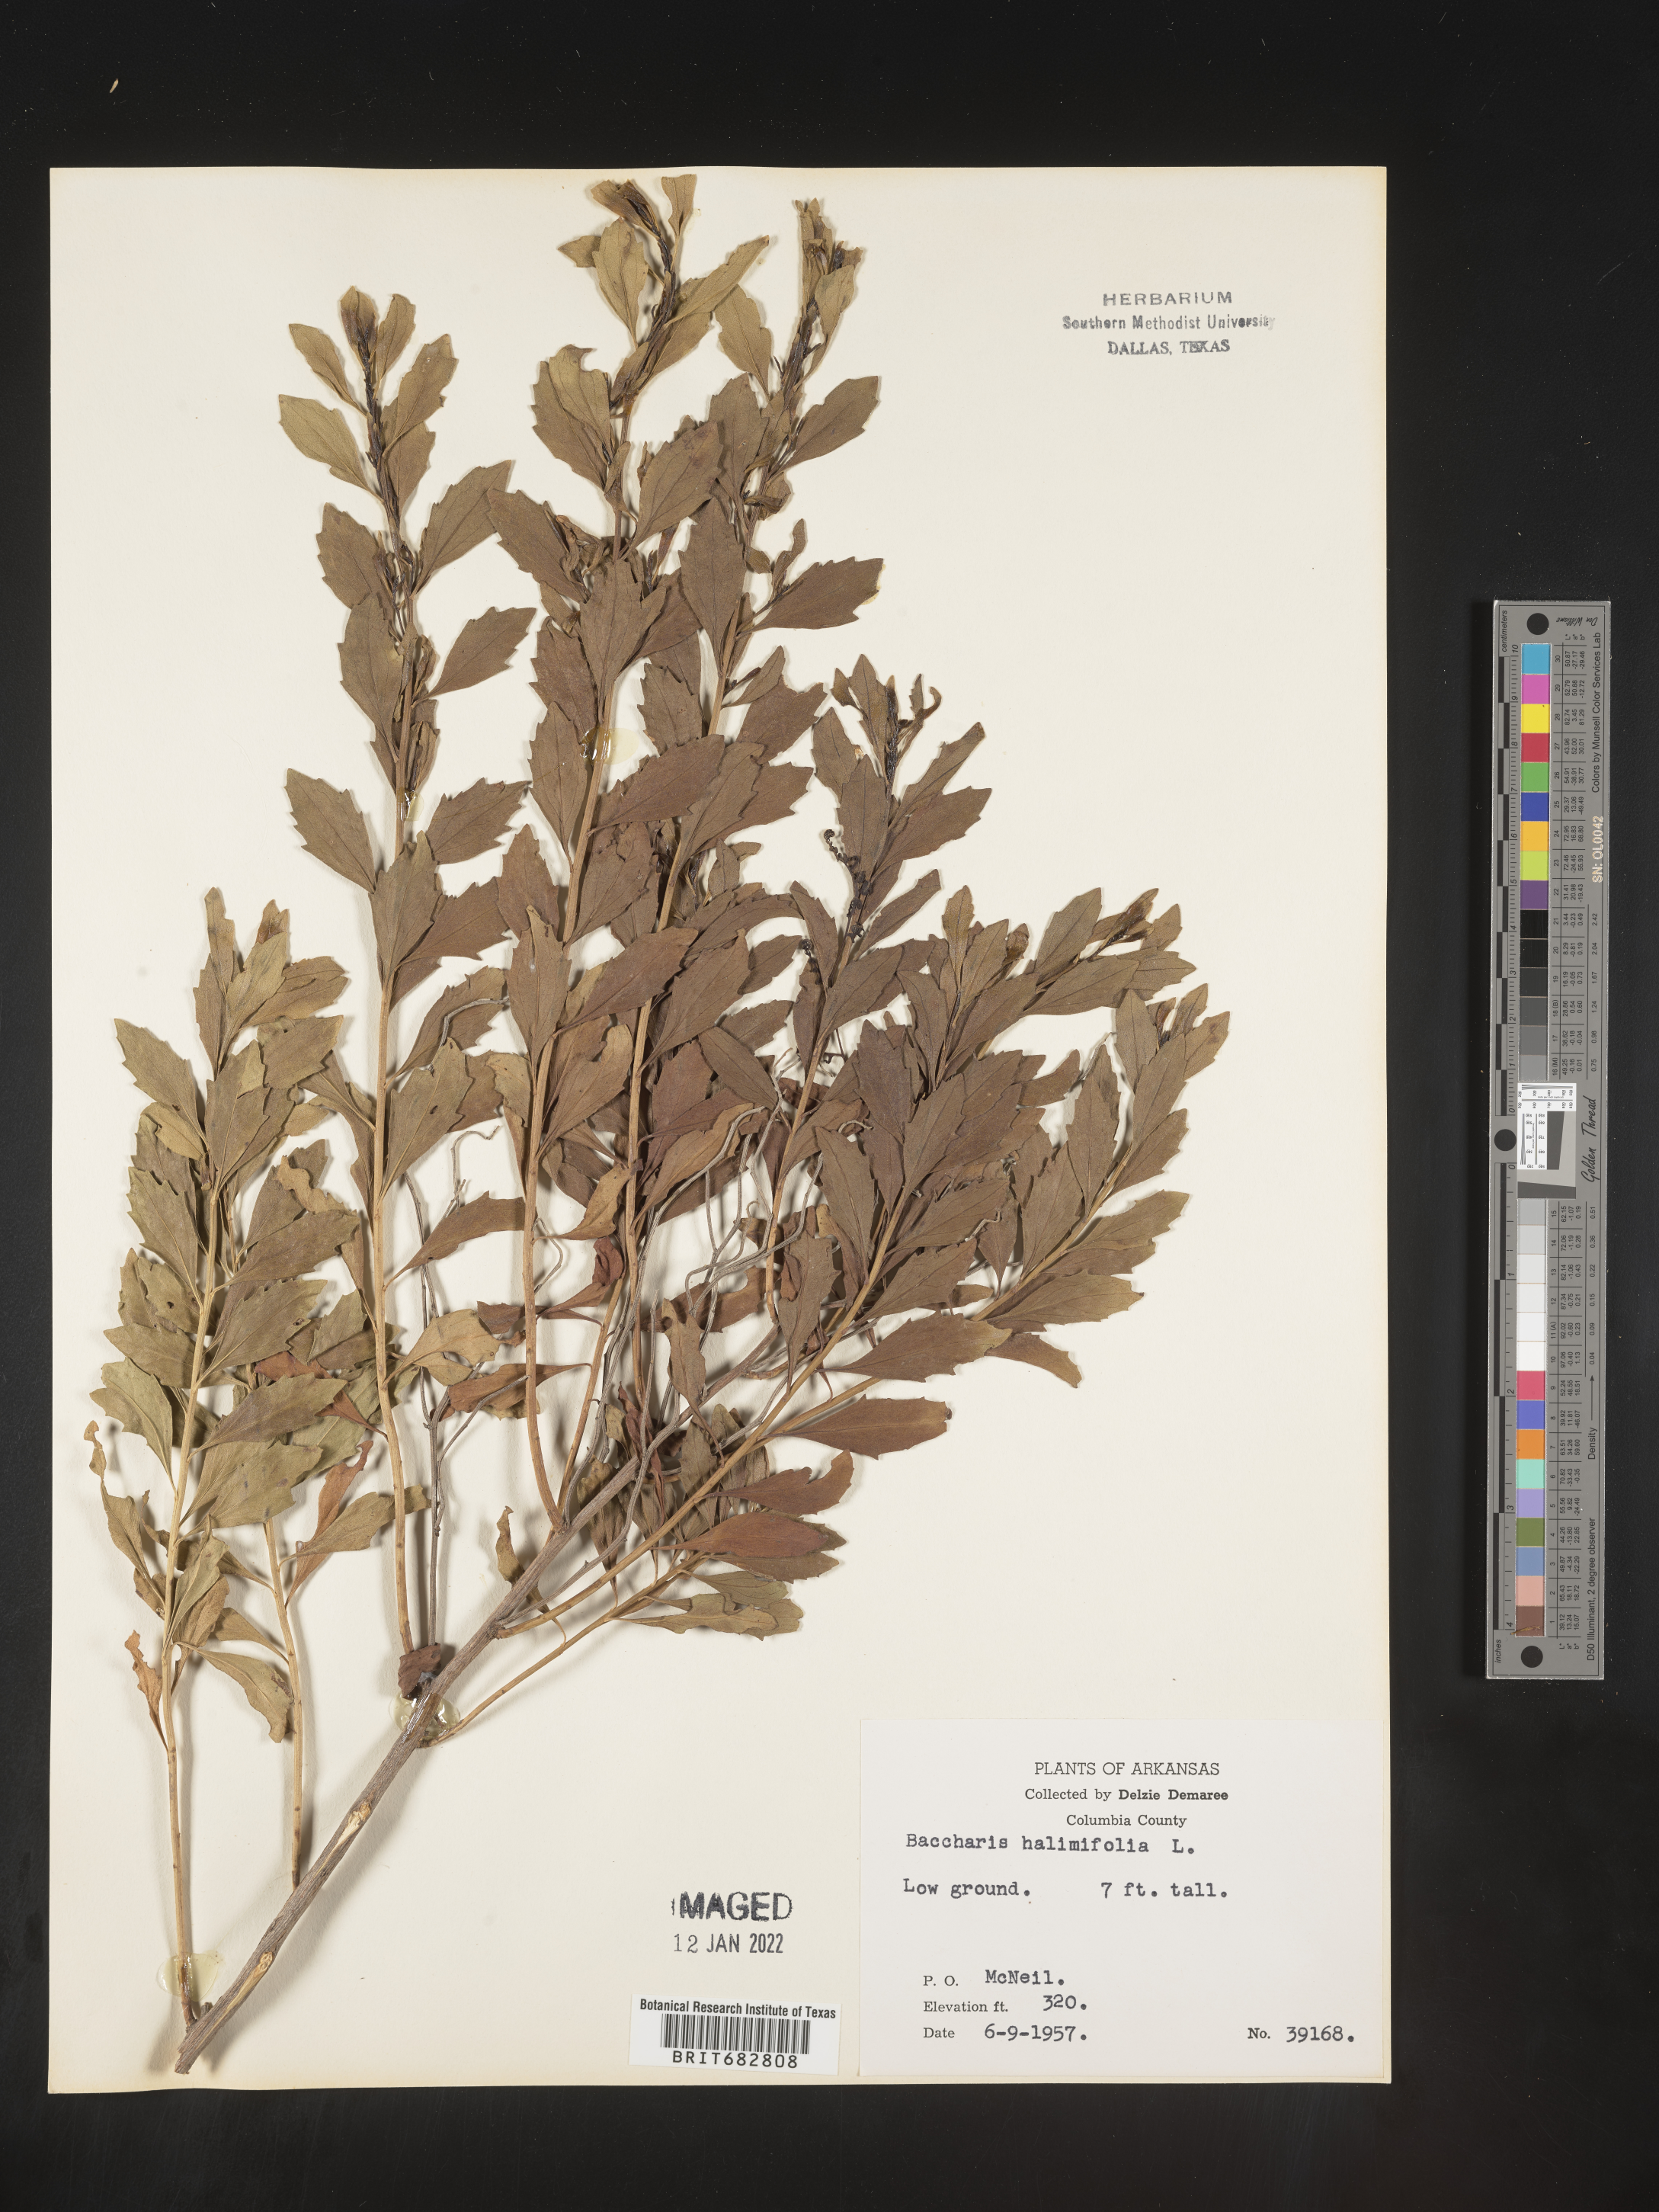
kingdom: Plantae
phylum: Tracheophyta
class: Magnoliopsida
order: Asterales
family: Asteraceae
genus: Nidorella
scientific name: Nidorella ivifolia
